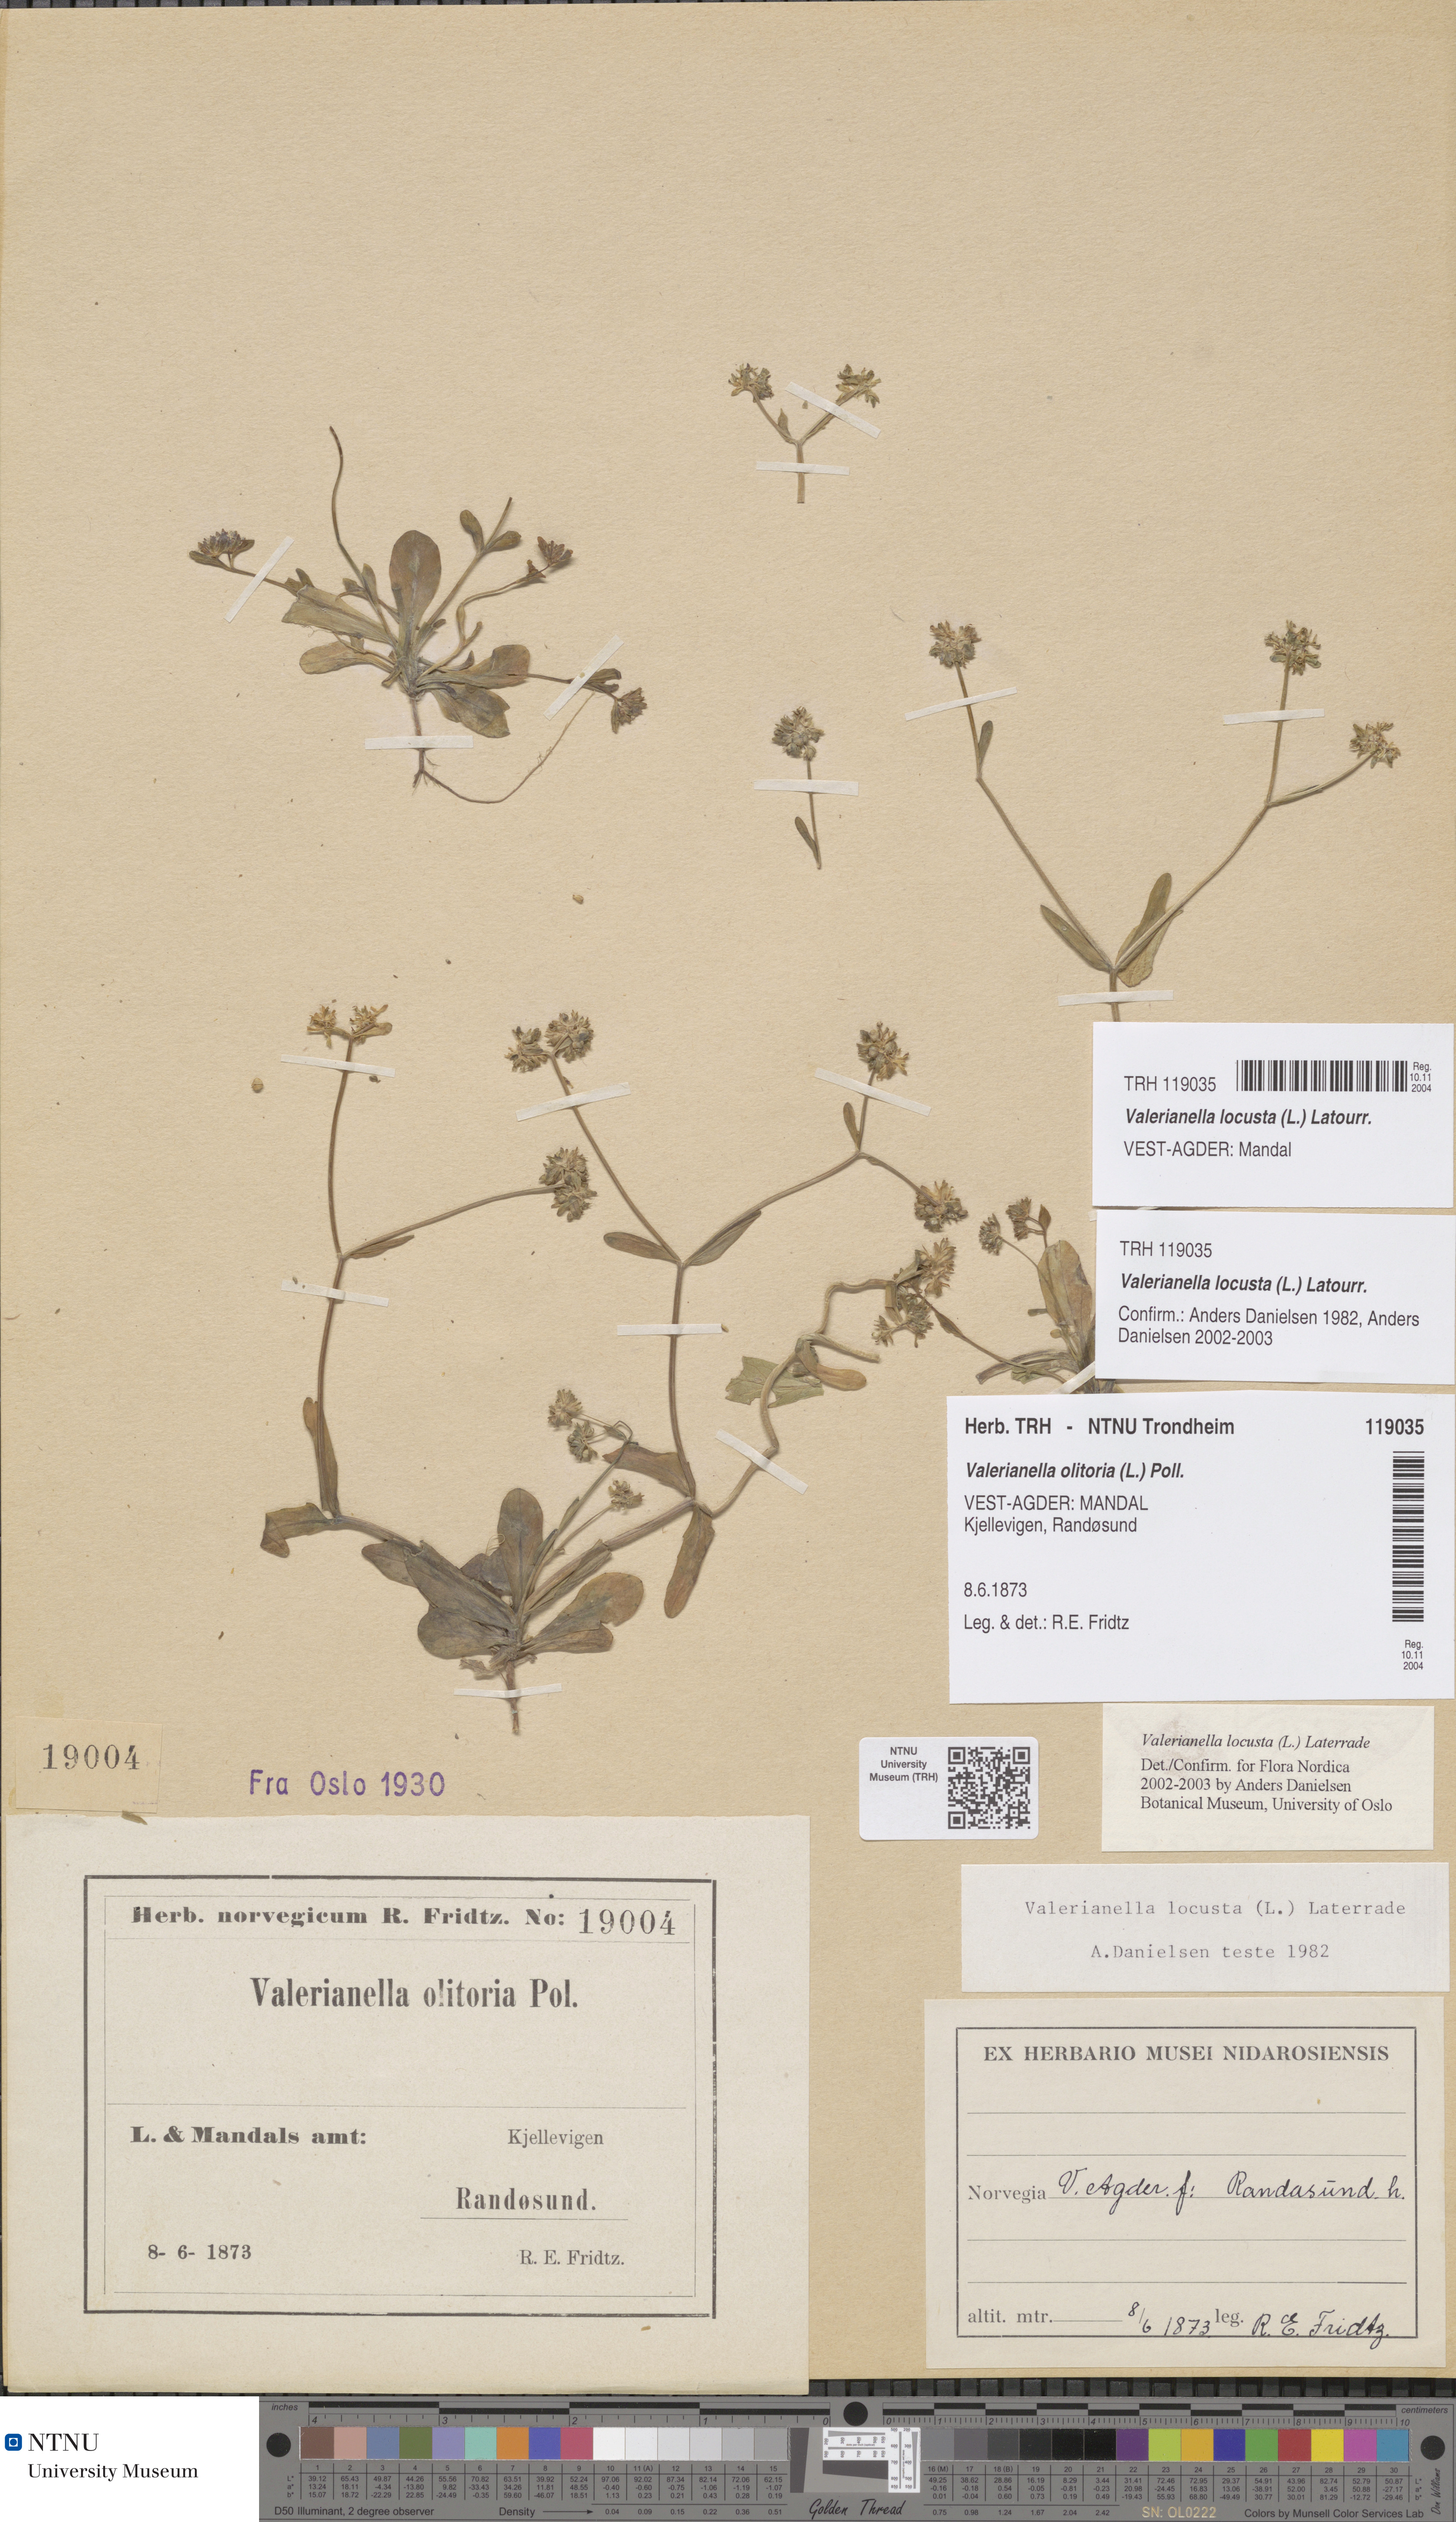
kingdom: Plantae
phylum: Tracheophyta
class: Magnoliopsida
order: Dipsacales
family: Caprifoliaceae
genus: Valerianella
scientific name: Valerianella locusta
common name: Common cornsalad
